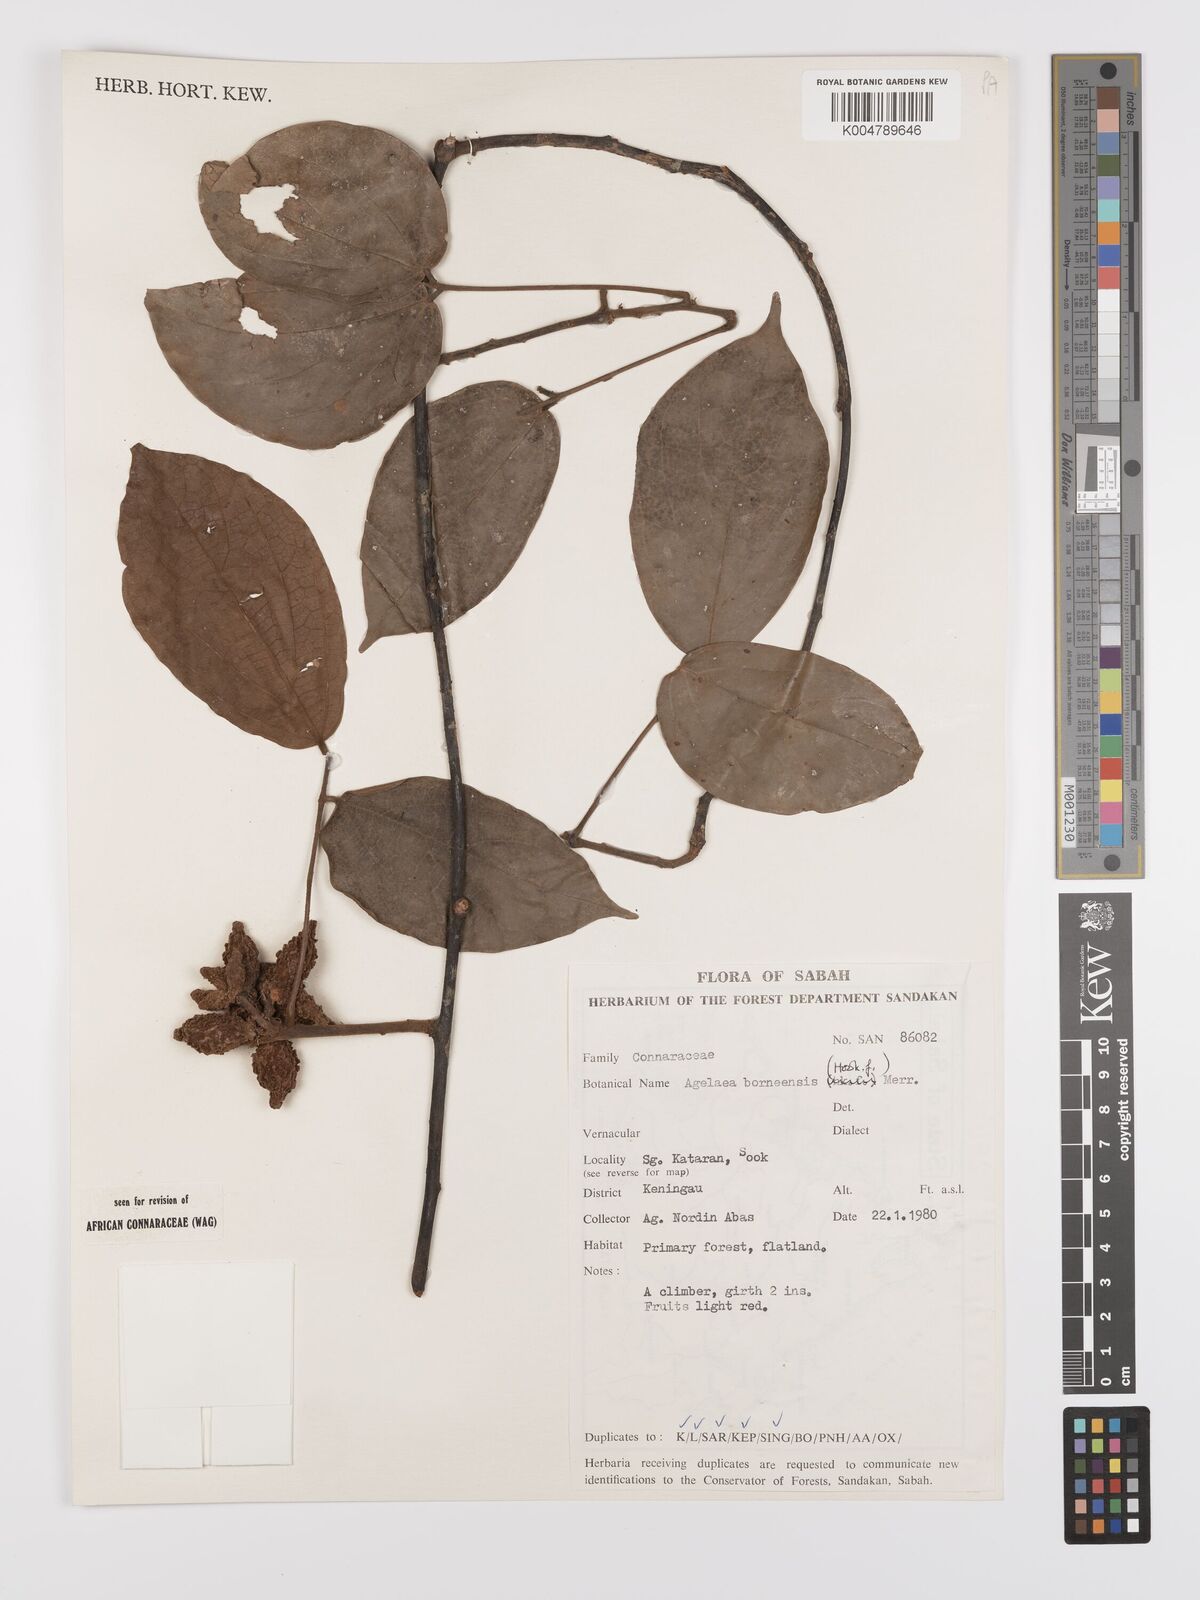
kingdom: Plantae
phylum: Tracheophyta
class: Magnoliopsida
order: Oxalidales
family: Connaraceae
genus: Agelaea
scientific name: Agelaea borneensis
